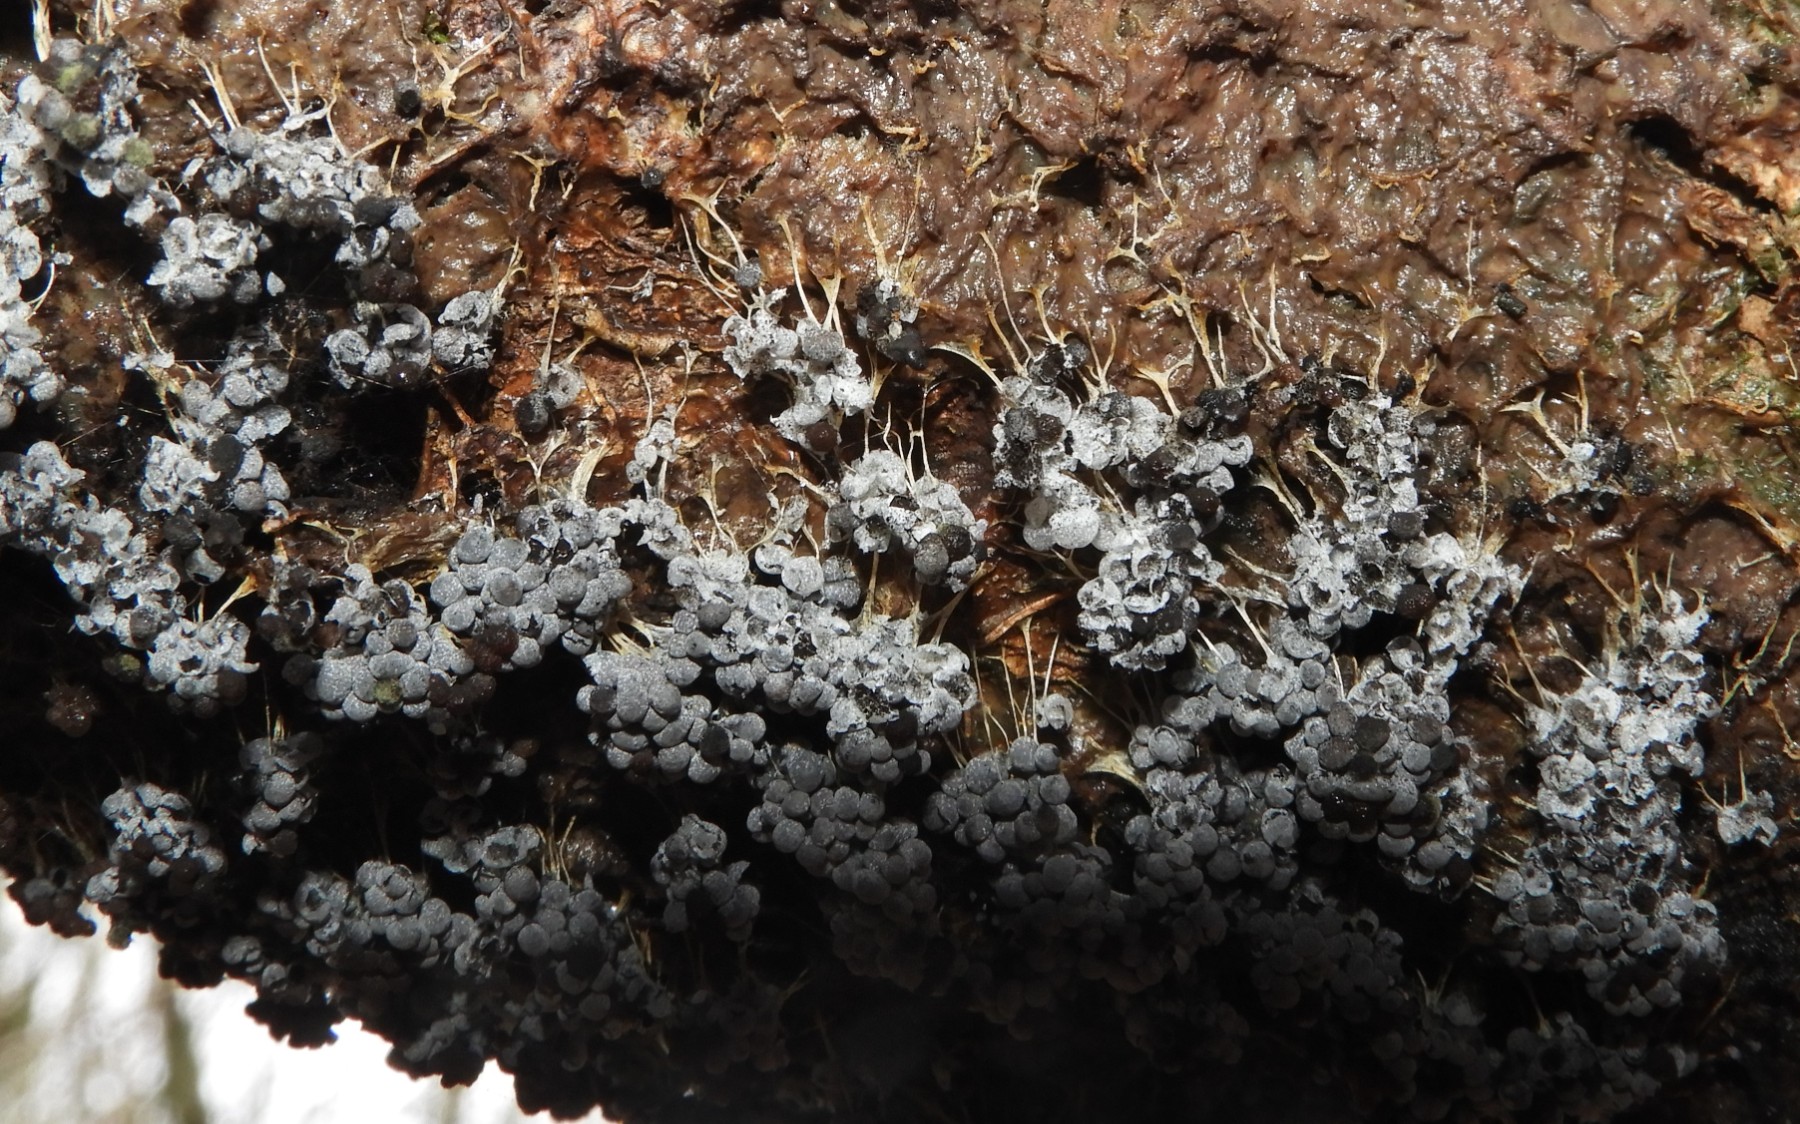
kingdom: Protozoa
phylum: Mycetozoa
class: Myxomycetes
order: Physarales
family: Physaraceae
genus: Badhamia
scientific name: Badhamia utricularis
